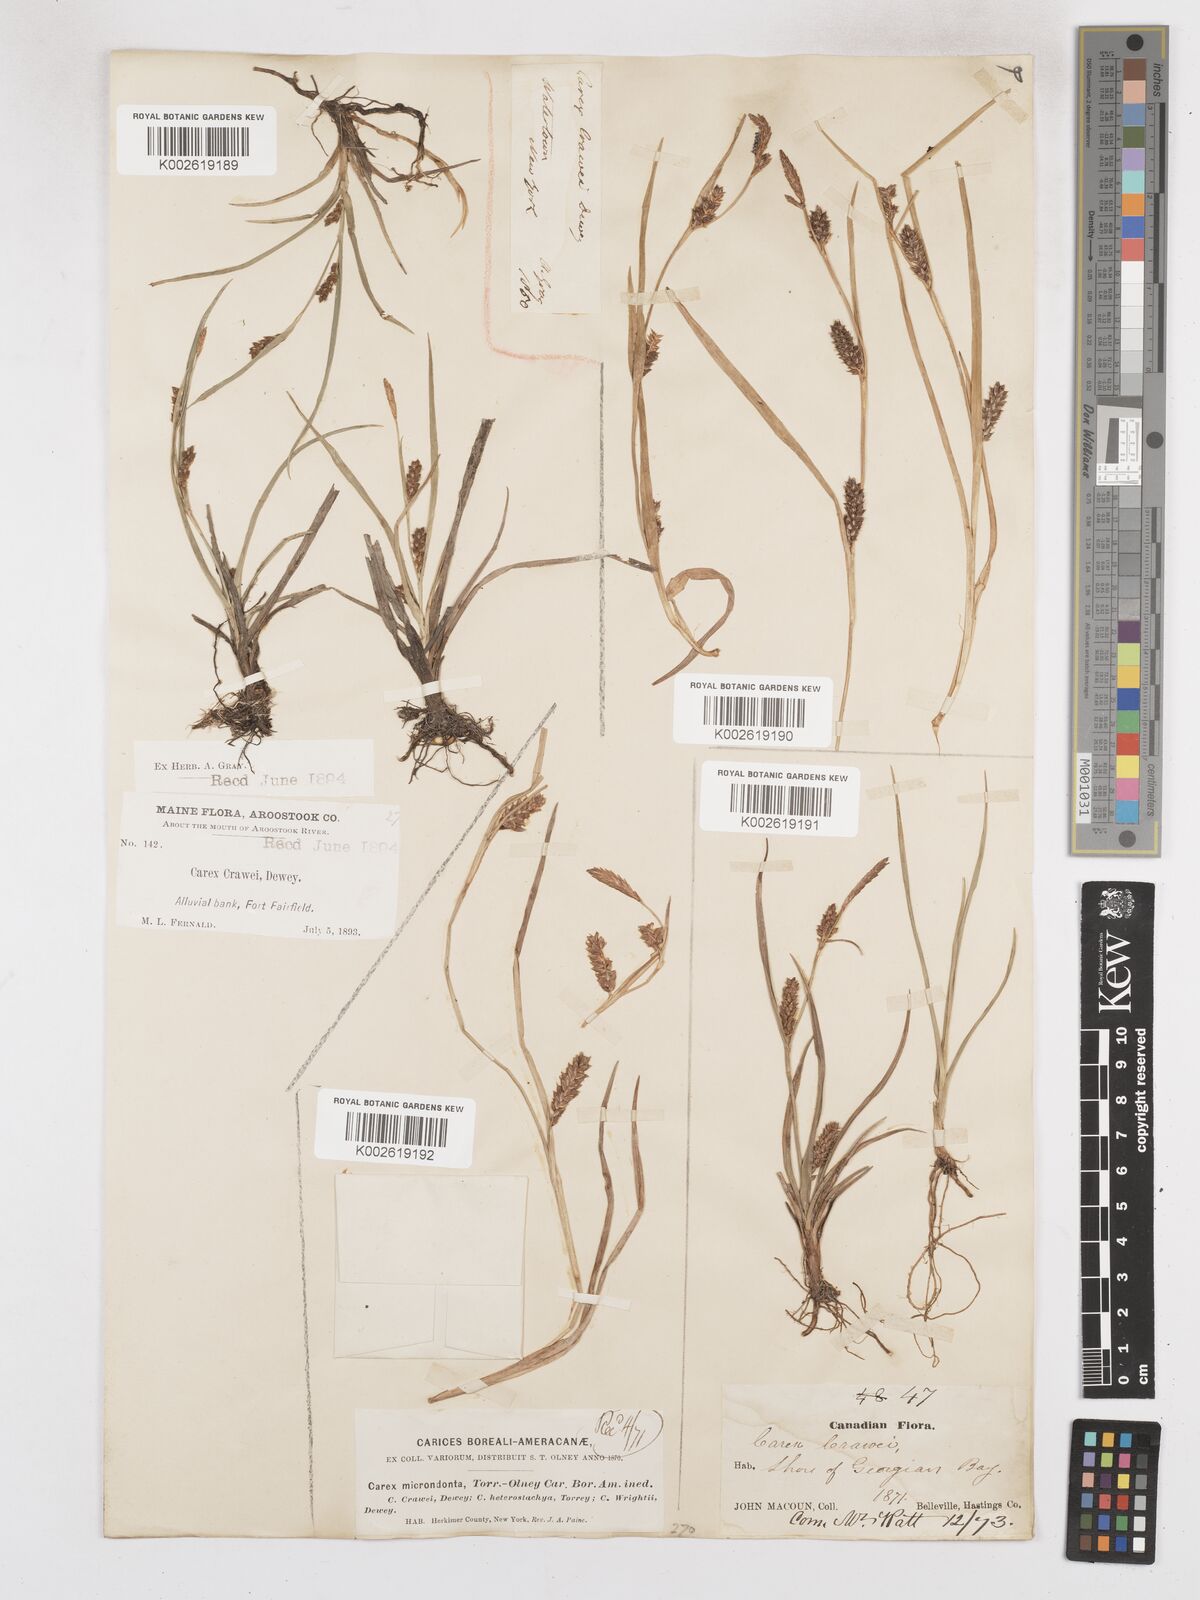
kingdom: Plantae
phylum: Tracheophyta
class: Liliopsida
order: Poales
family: Cyperaceae
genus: Carex
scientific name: Carex crawei
